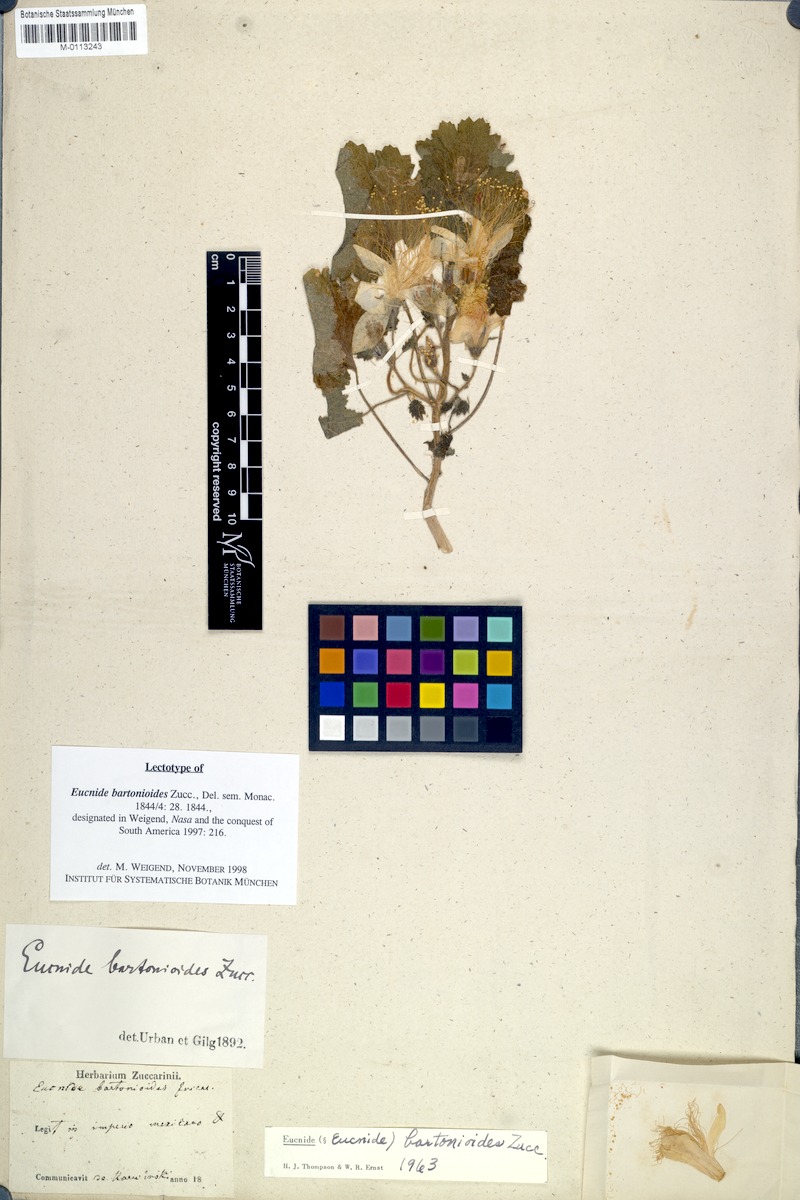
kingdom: Plantae
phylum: Tracheophyta
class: Magnoliopsida
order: Cornales
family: Loasaceae
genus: Eucnide
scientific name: Eucnide bartonioides
